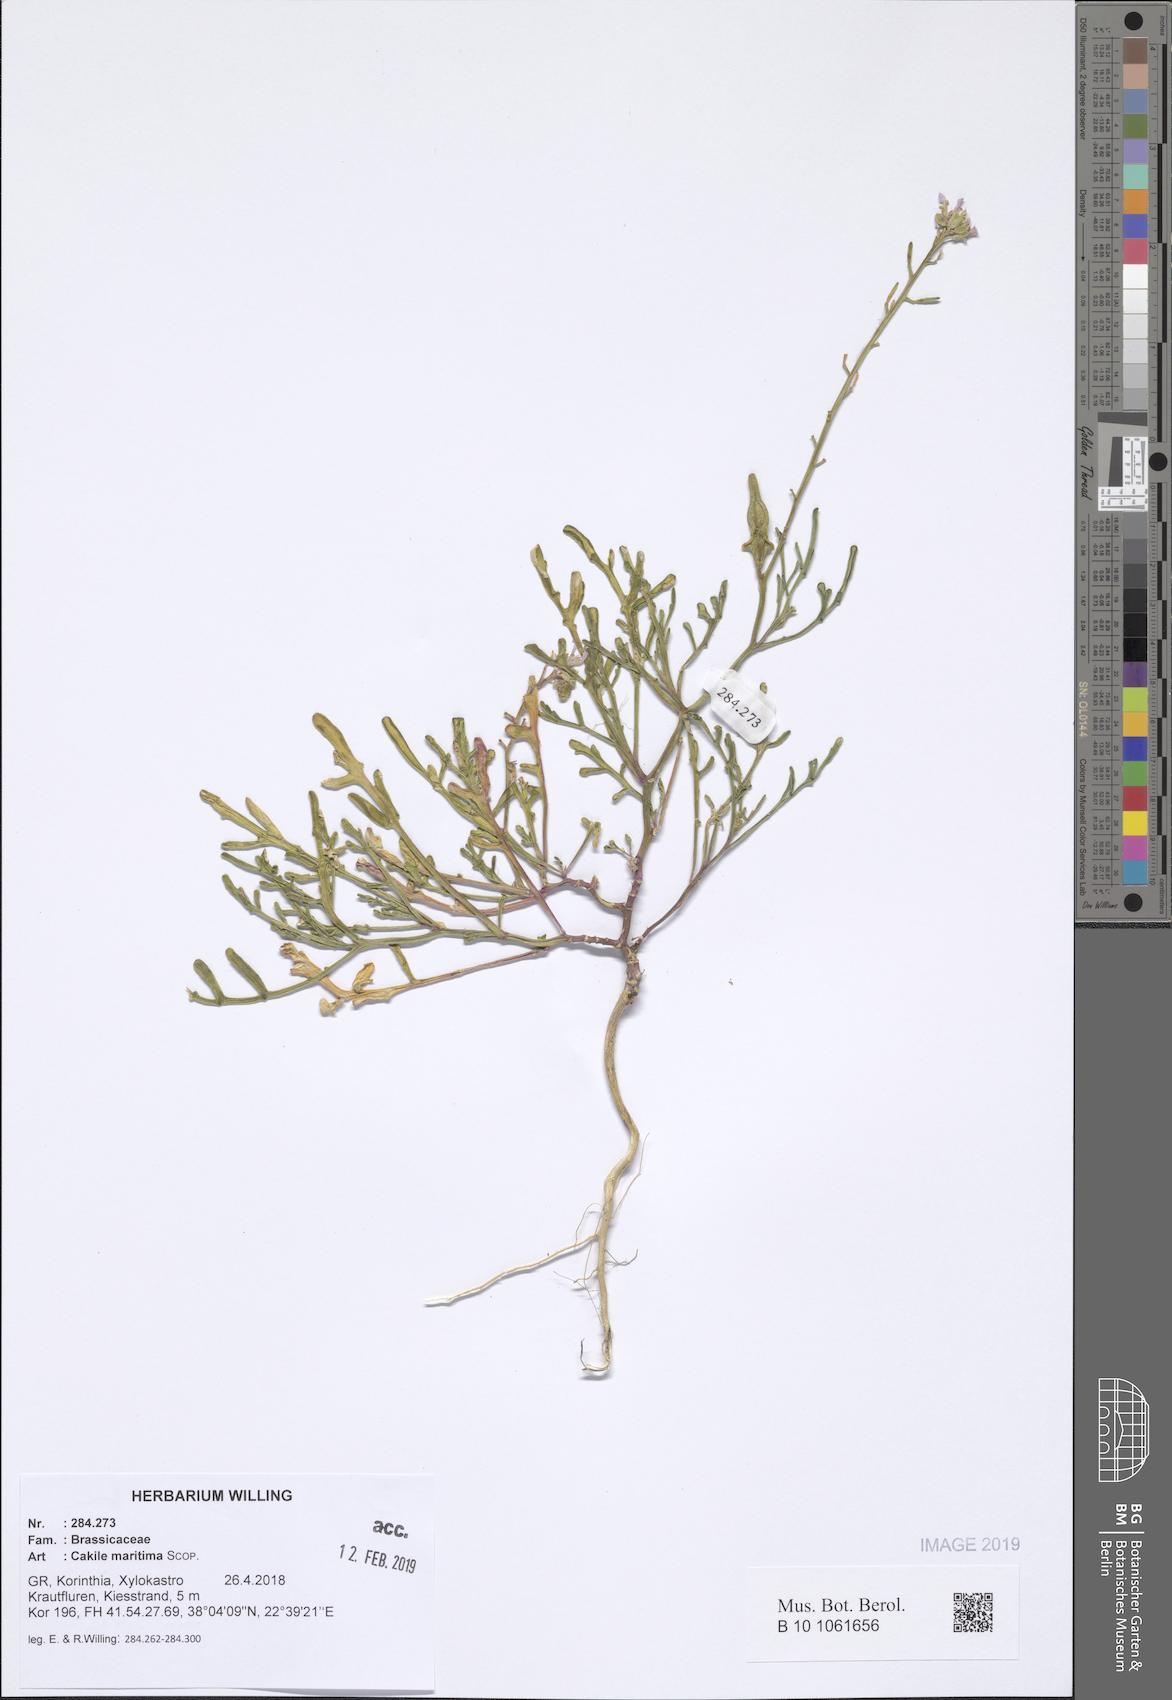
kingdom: Plantae
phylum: Tracheophyta
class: Magnoliopsida
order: Brassicales
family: Brassicaceae
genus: Cakile
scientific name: Cakile maritima
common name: Sea rocket
